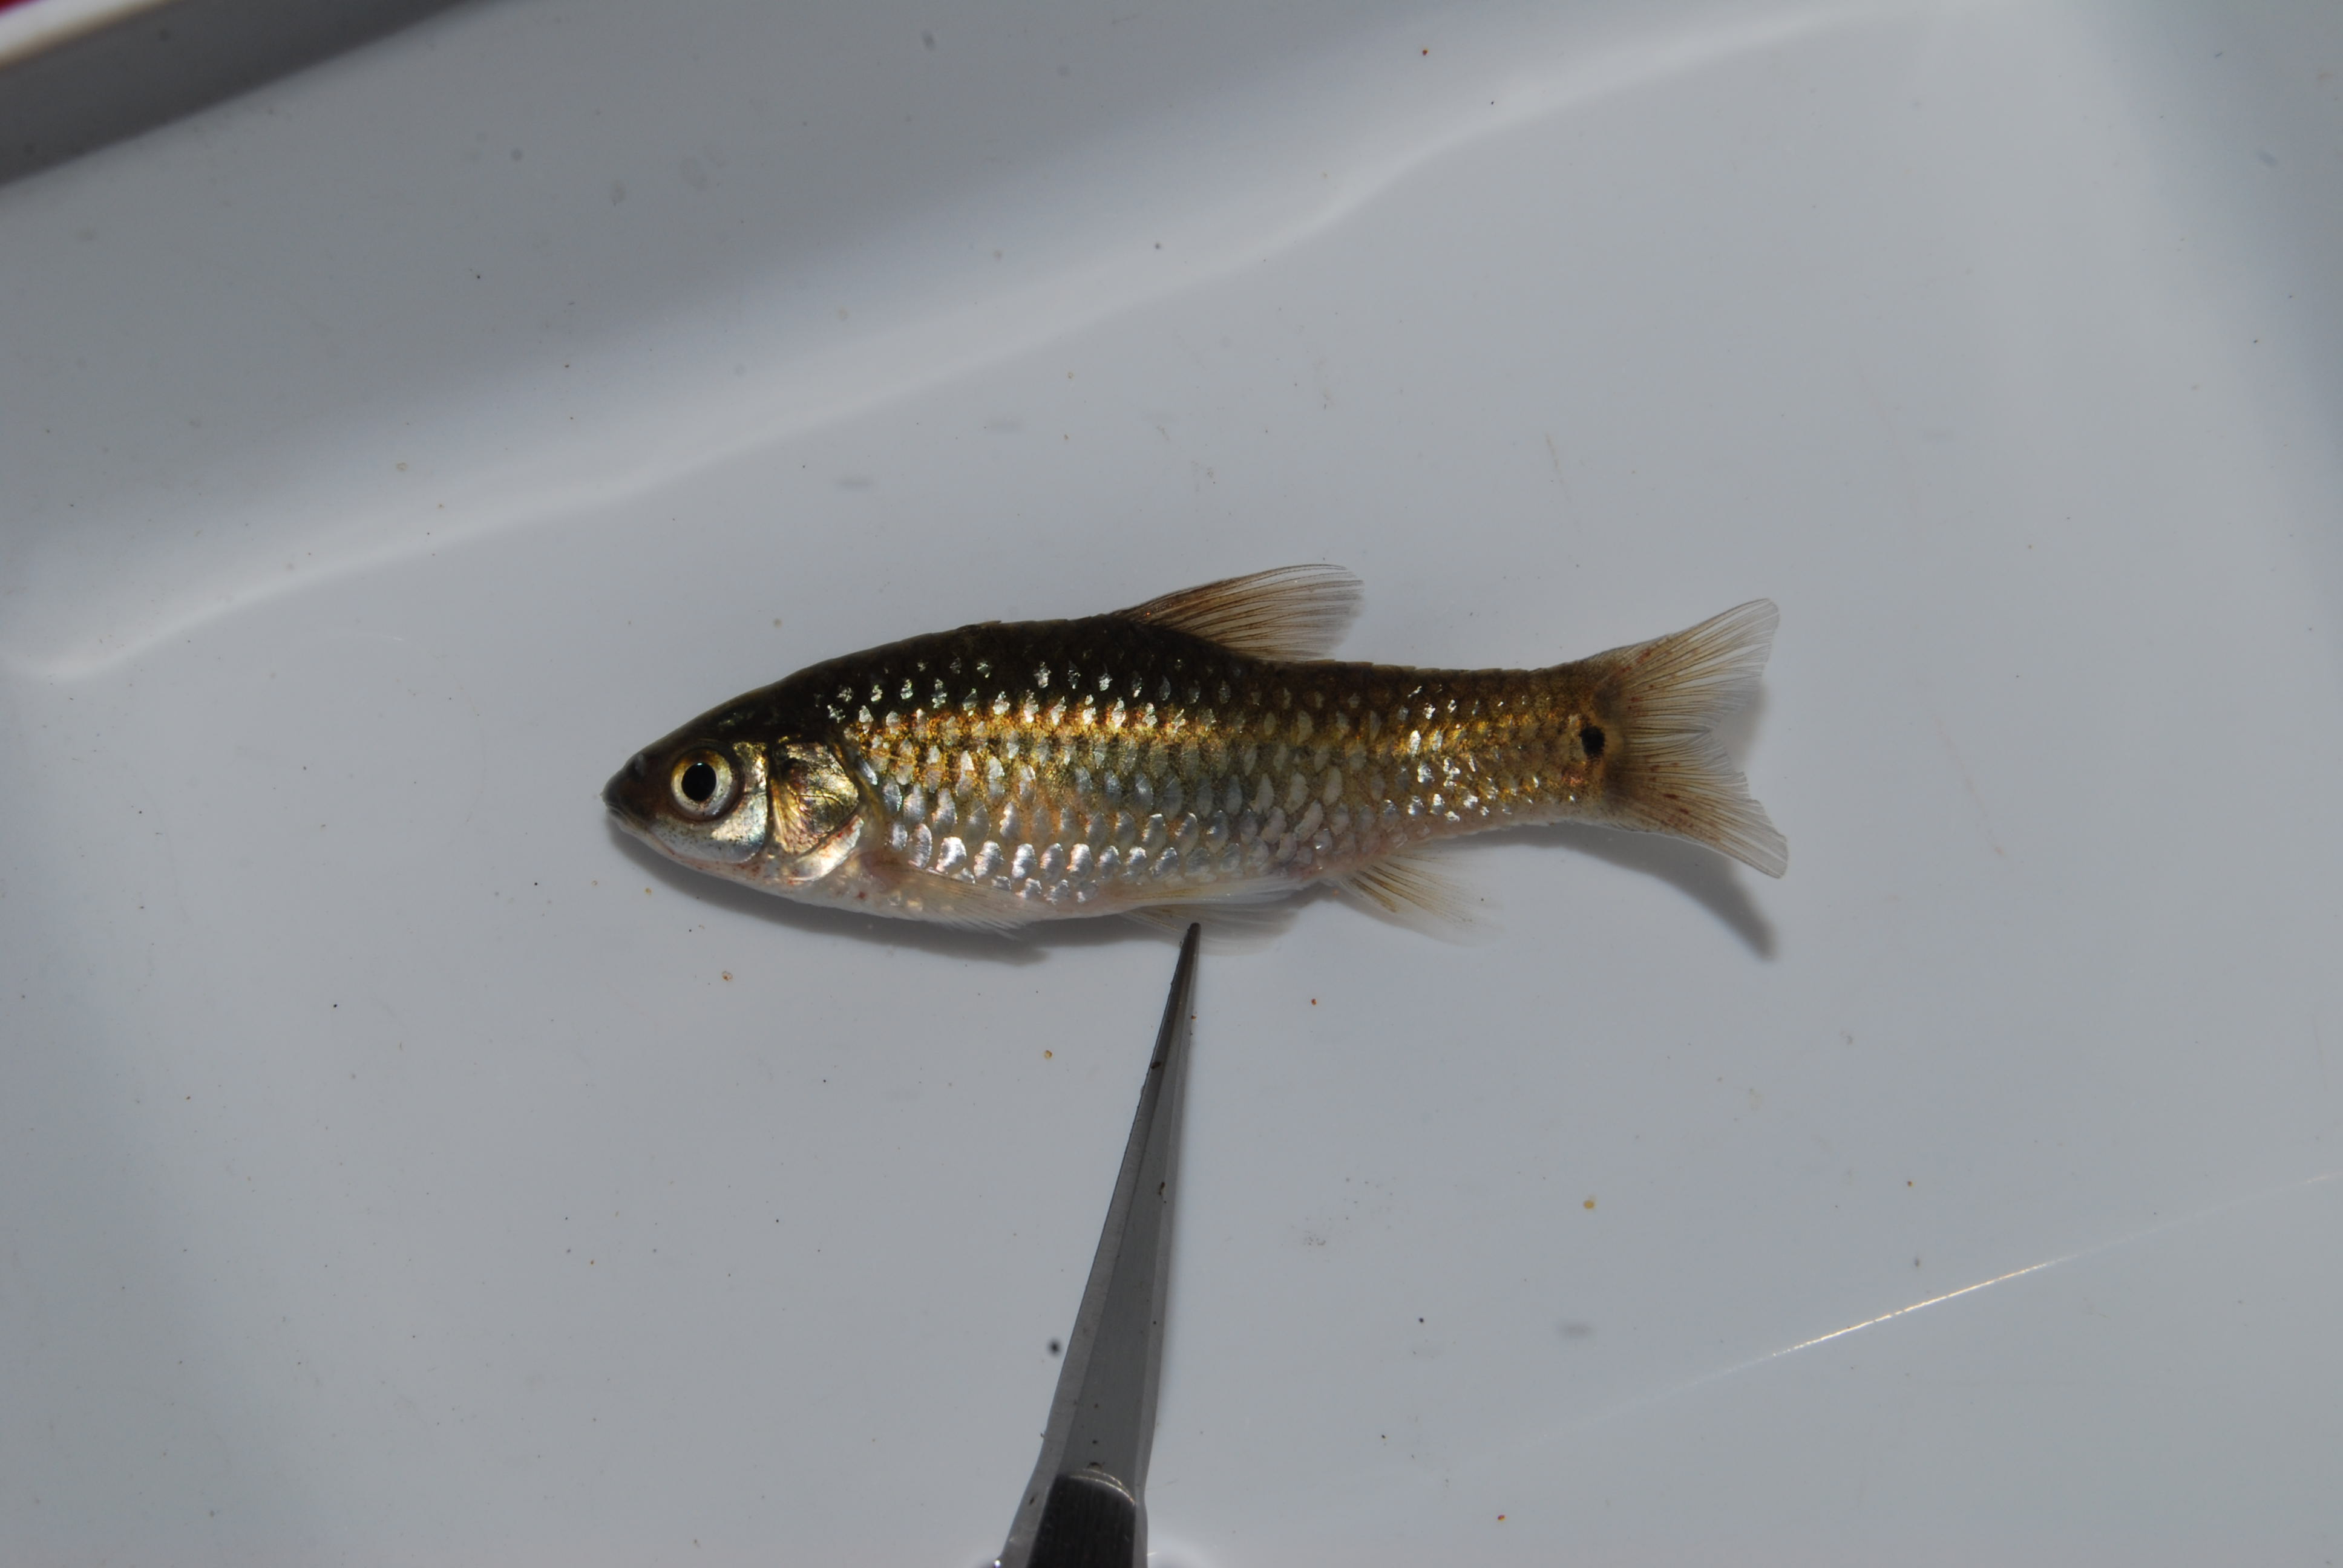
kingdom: Animalia
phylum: Chordata
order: Cypriniformes
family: Cyprinidae
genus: Enteromius
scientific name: Enteromius brevidorsalis
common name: Dwarf barb
